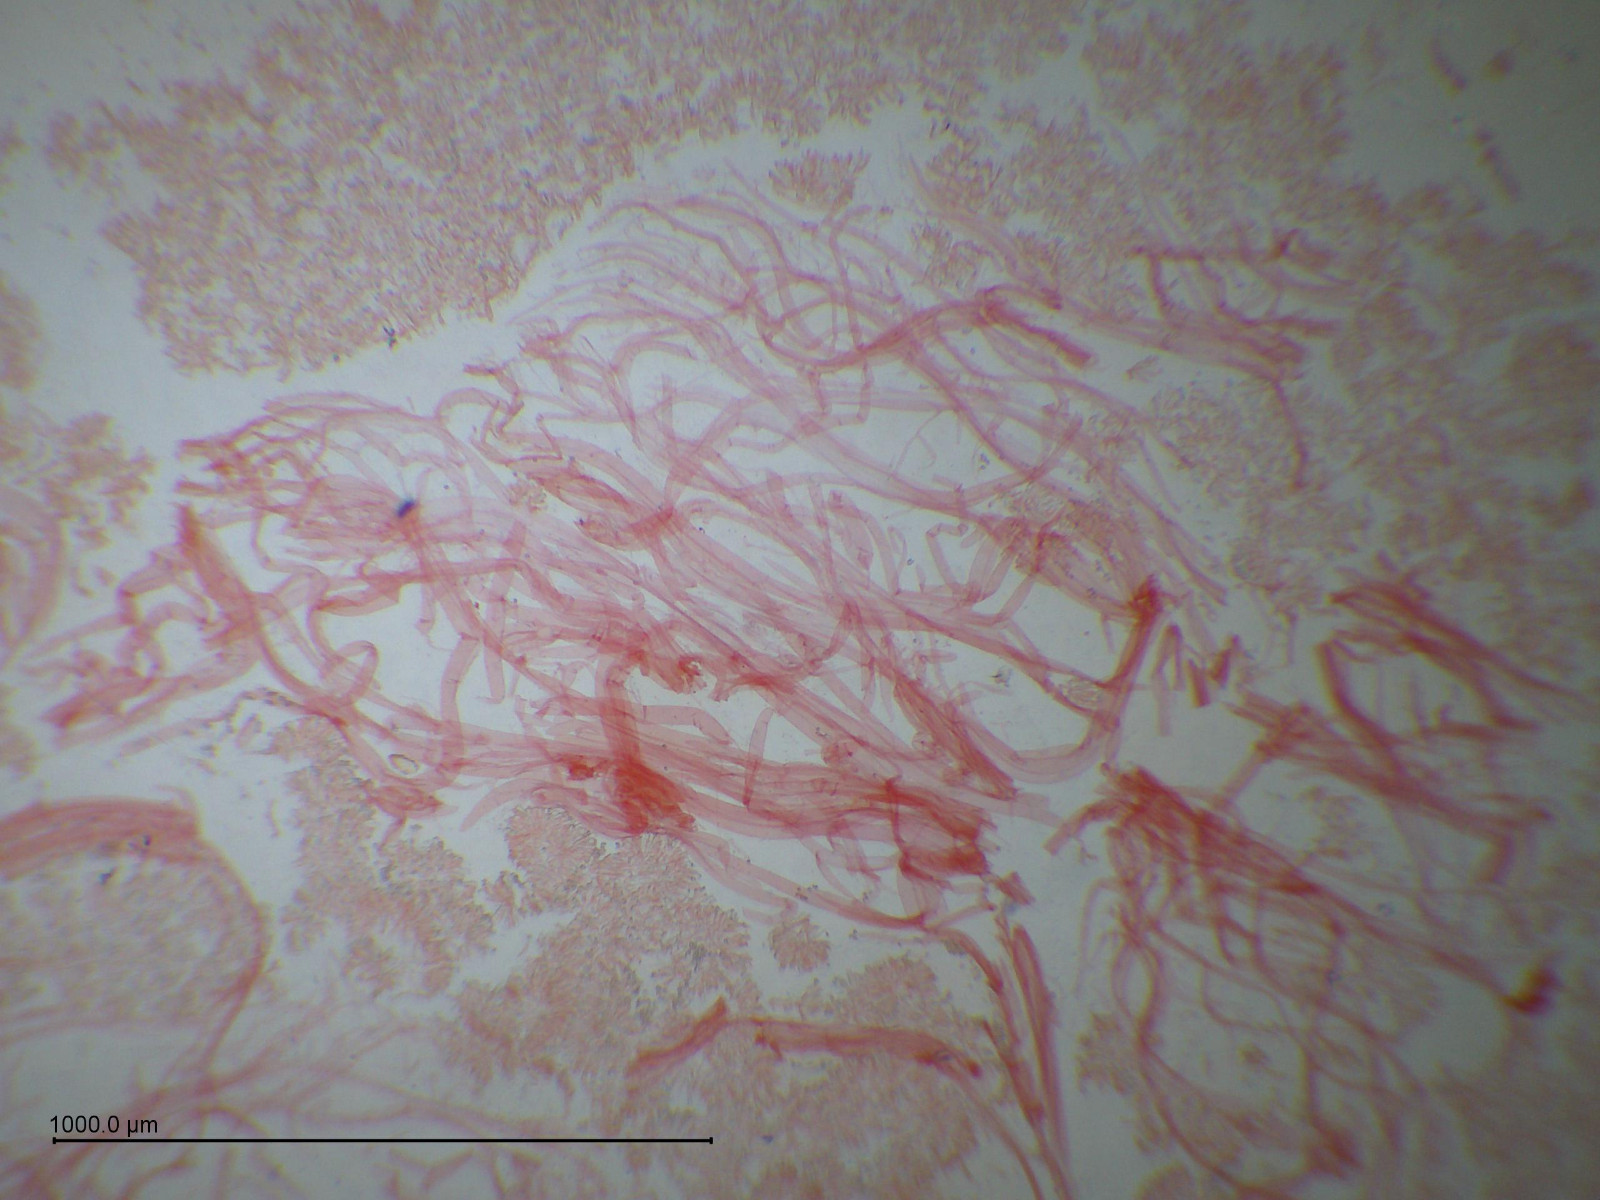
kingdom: Fungi
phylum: Basidiomycota
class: Agaricomycetes
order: Agaricales
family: Hygrophoraceae
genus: Hygrocybe
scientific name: Hygrocybe chlorophana
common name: gul vokshat
